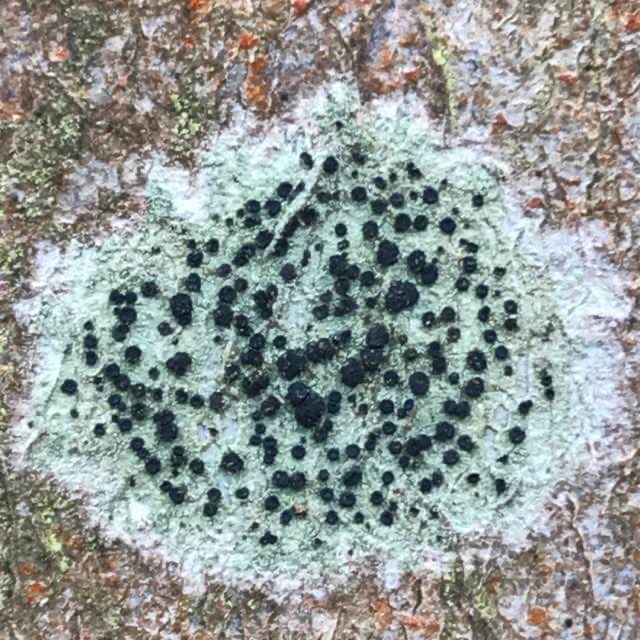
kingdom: Fungi
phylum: Ascomycota
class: Lecanoromycetes
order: Lecanorales
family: Lecanoraceae
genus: Lecidella
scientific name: Lecidella elaeochroma
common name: Grågrøn skivelav
